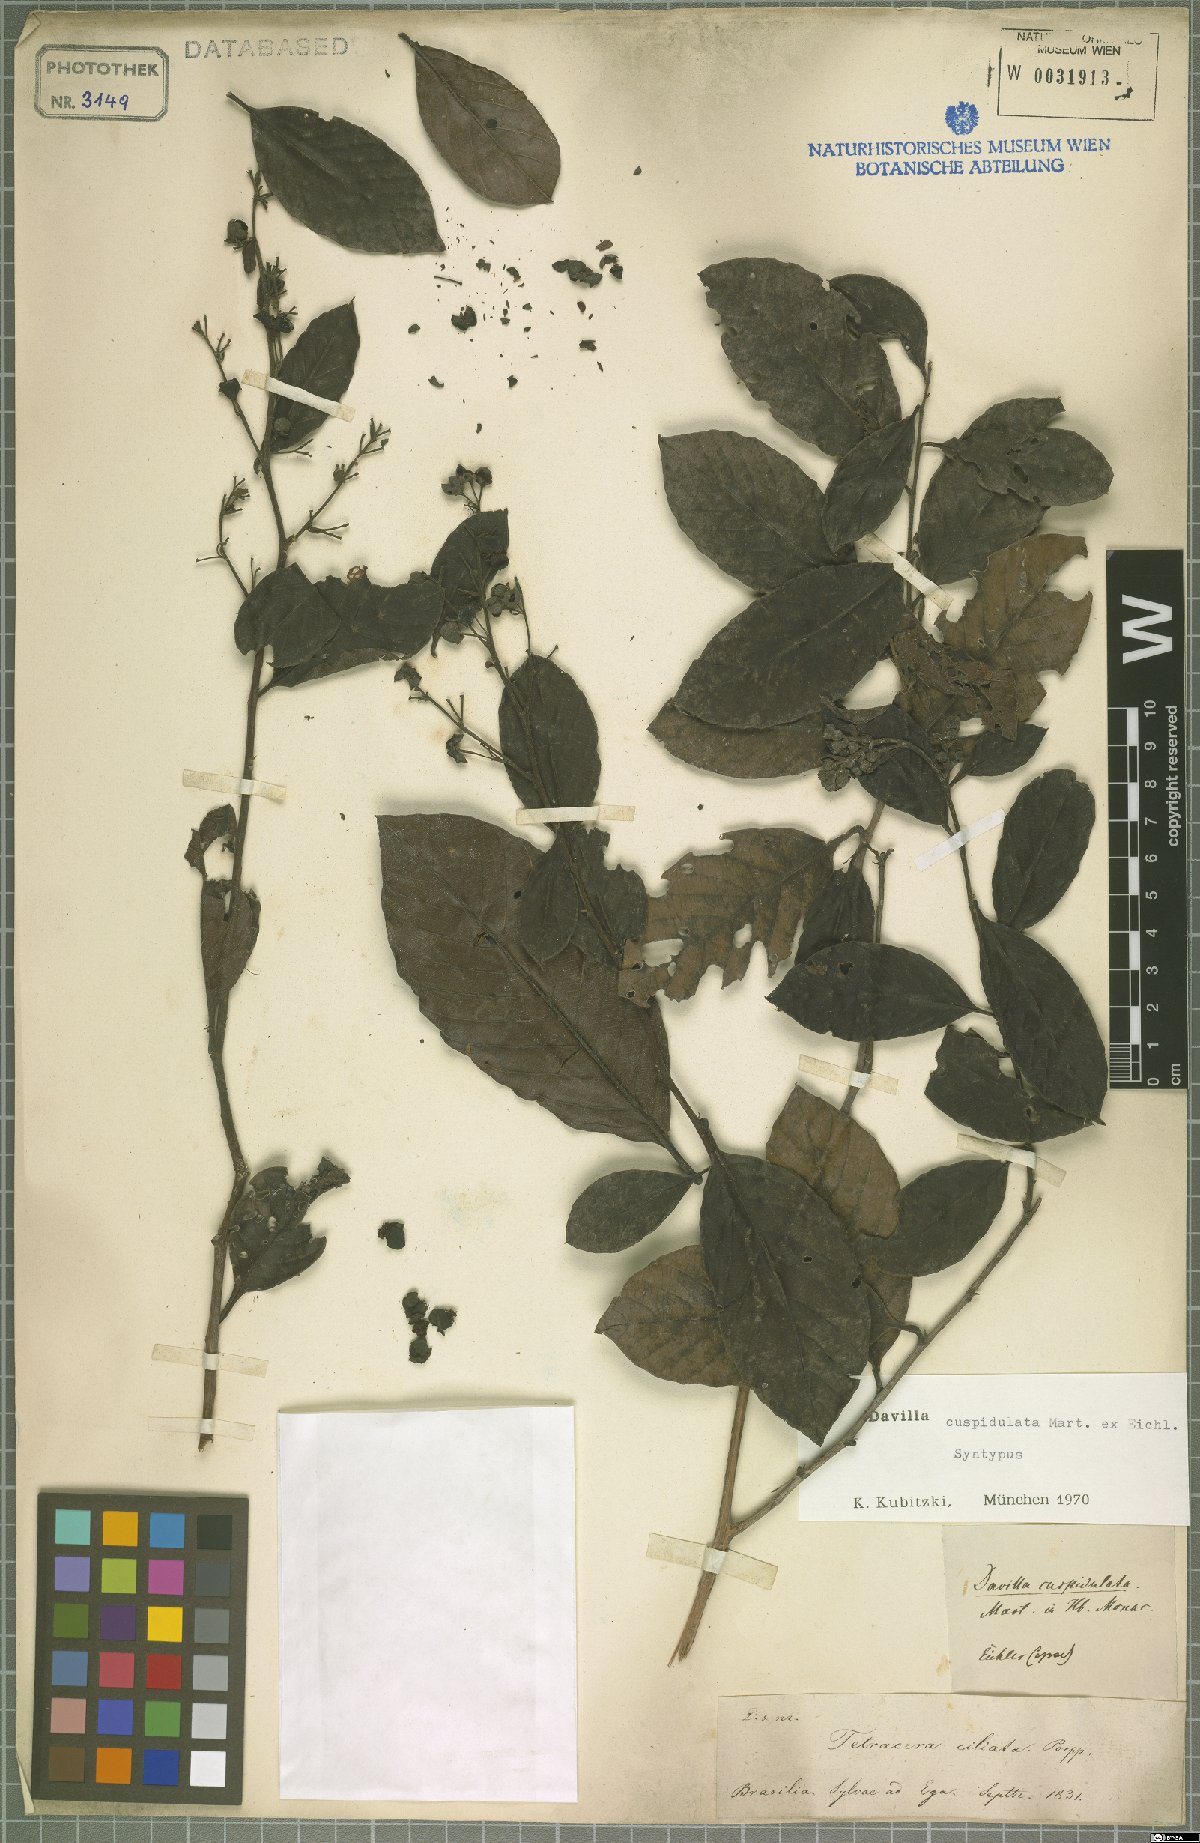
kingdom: Plantae
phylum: Tracheophyta
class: Magnoliopsida
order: Dilleniales
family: Dilleniaceae
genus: Davilla
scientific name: Davilla cuspidulata
